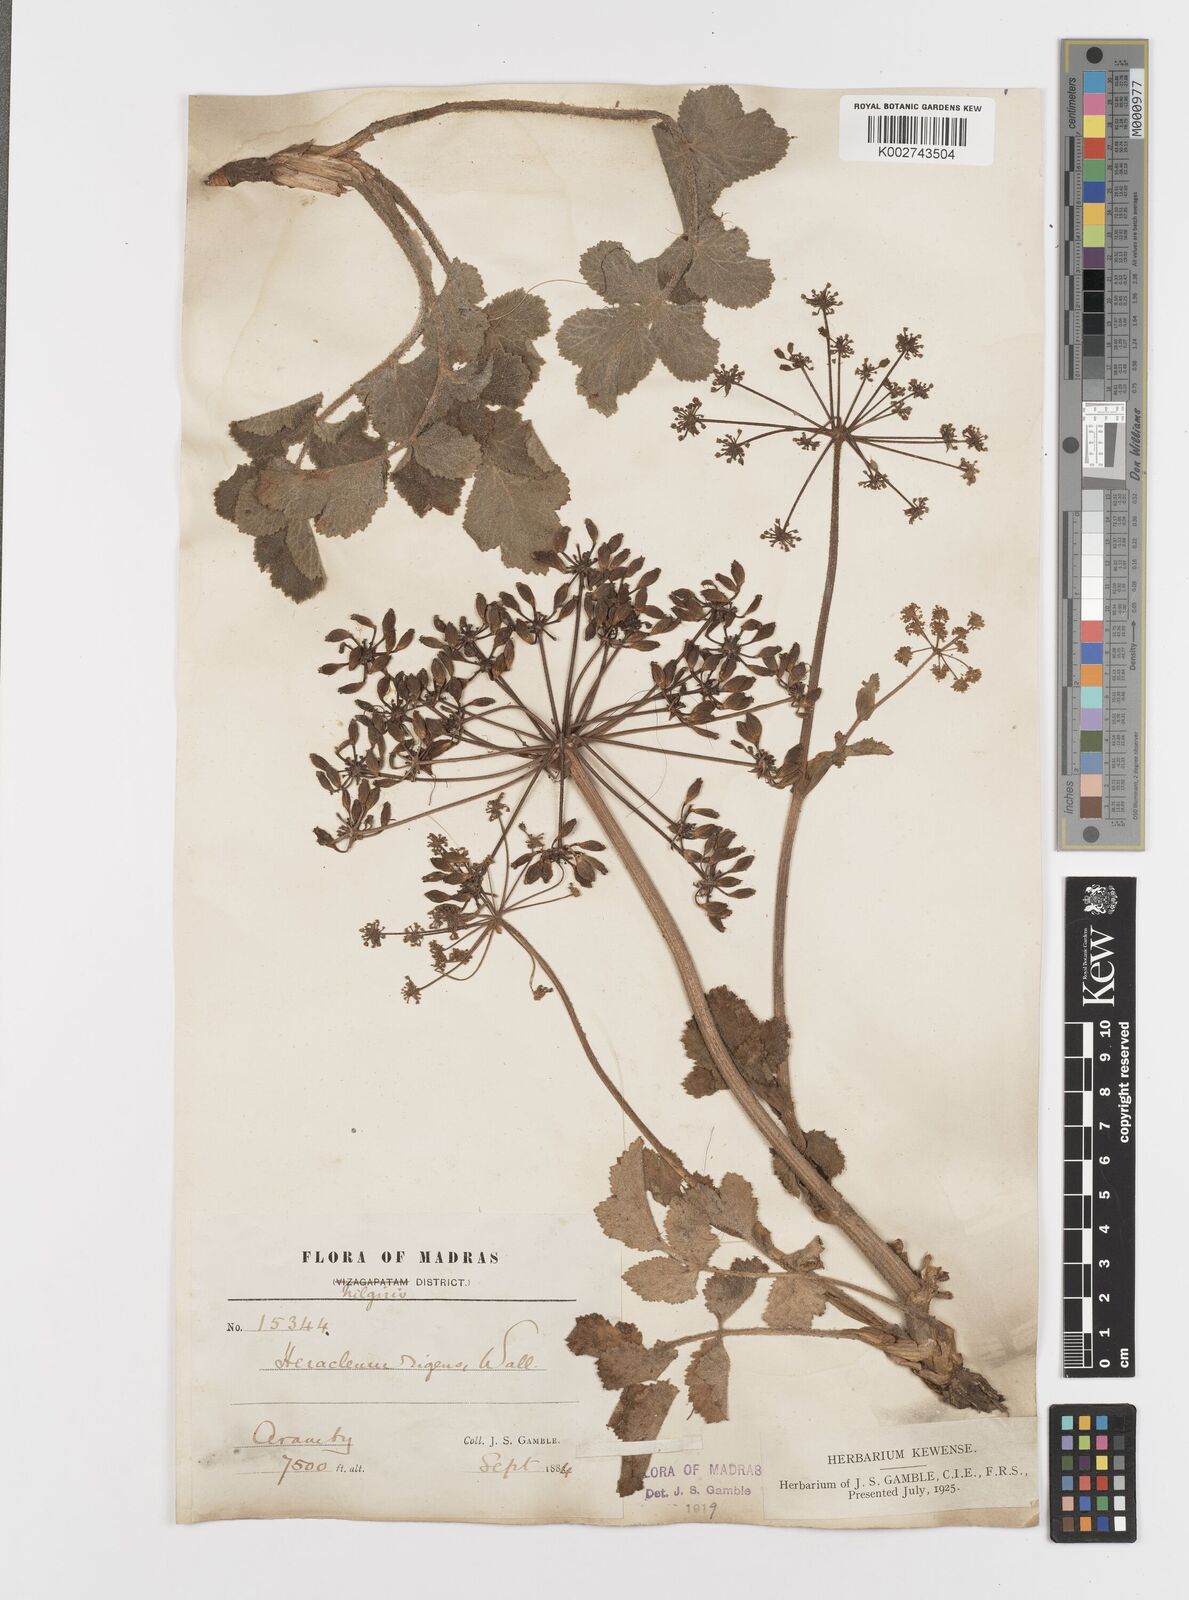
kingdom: Plantae
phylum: Tracheophyta
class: Magnoliopsida
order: Apiales
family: Apiaceae
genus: Tetrataenium
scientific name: Tetrataenium rigens
